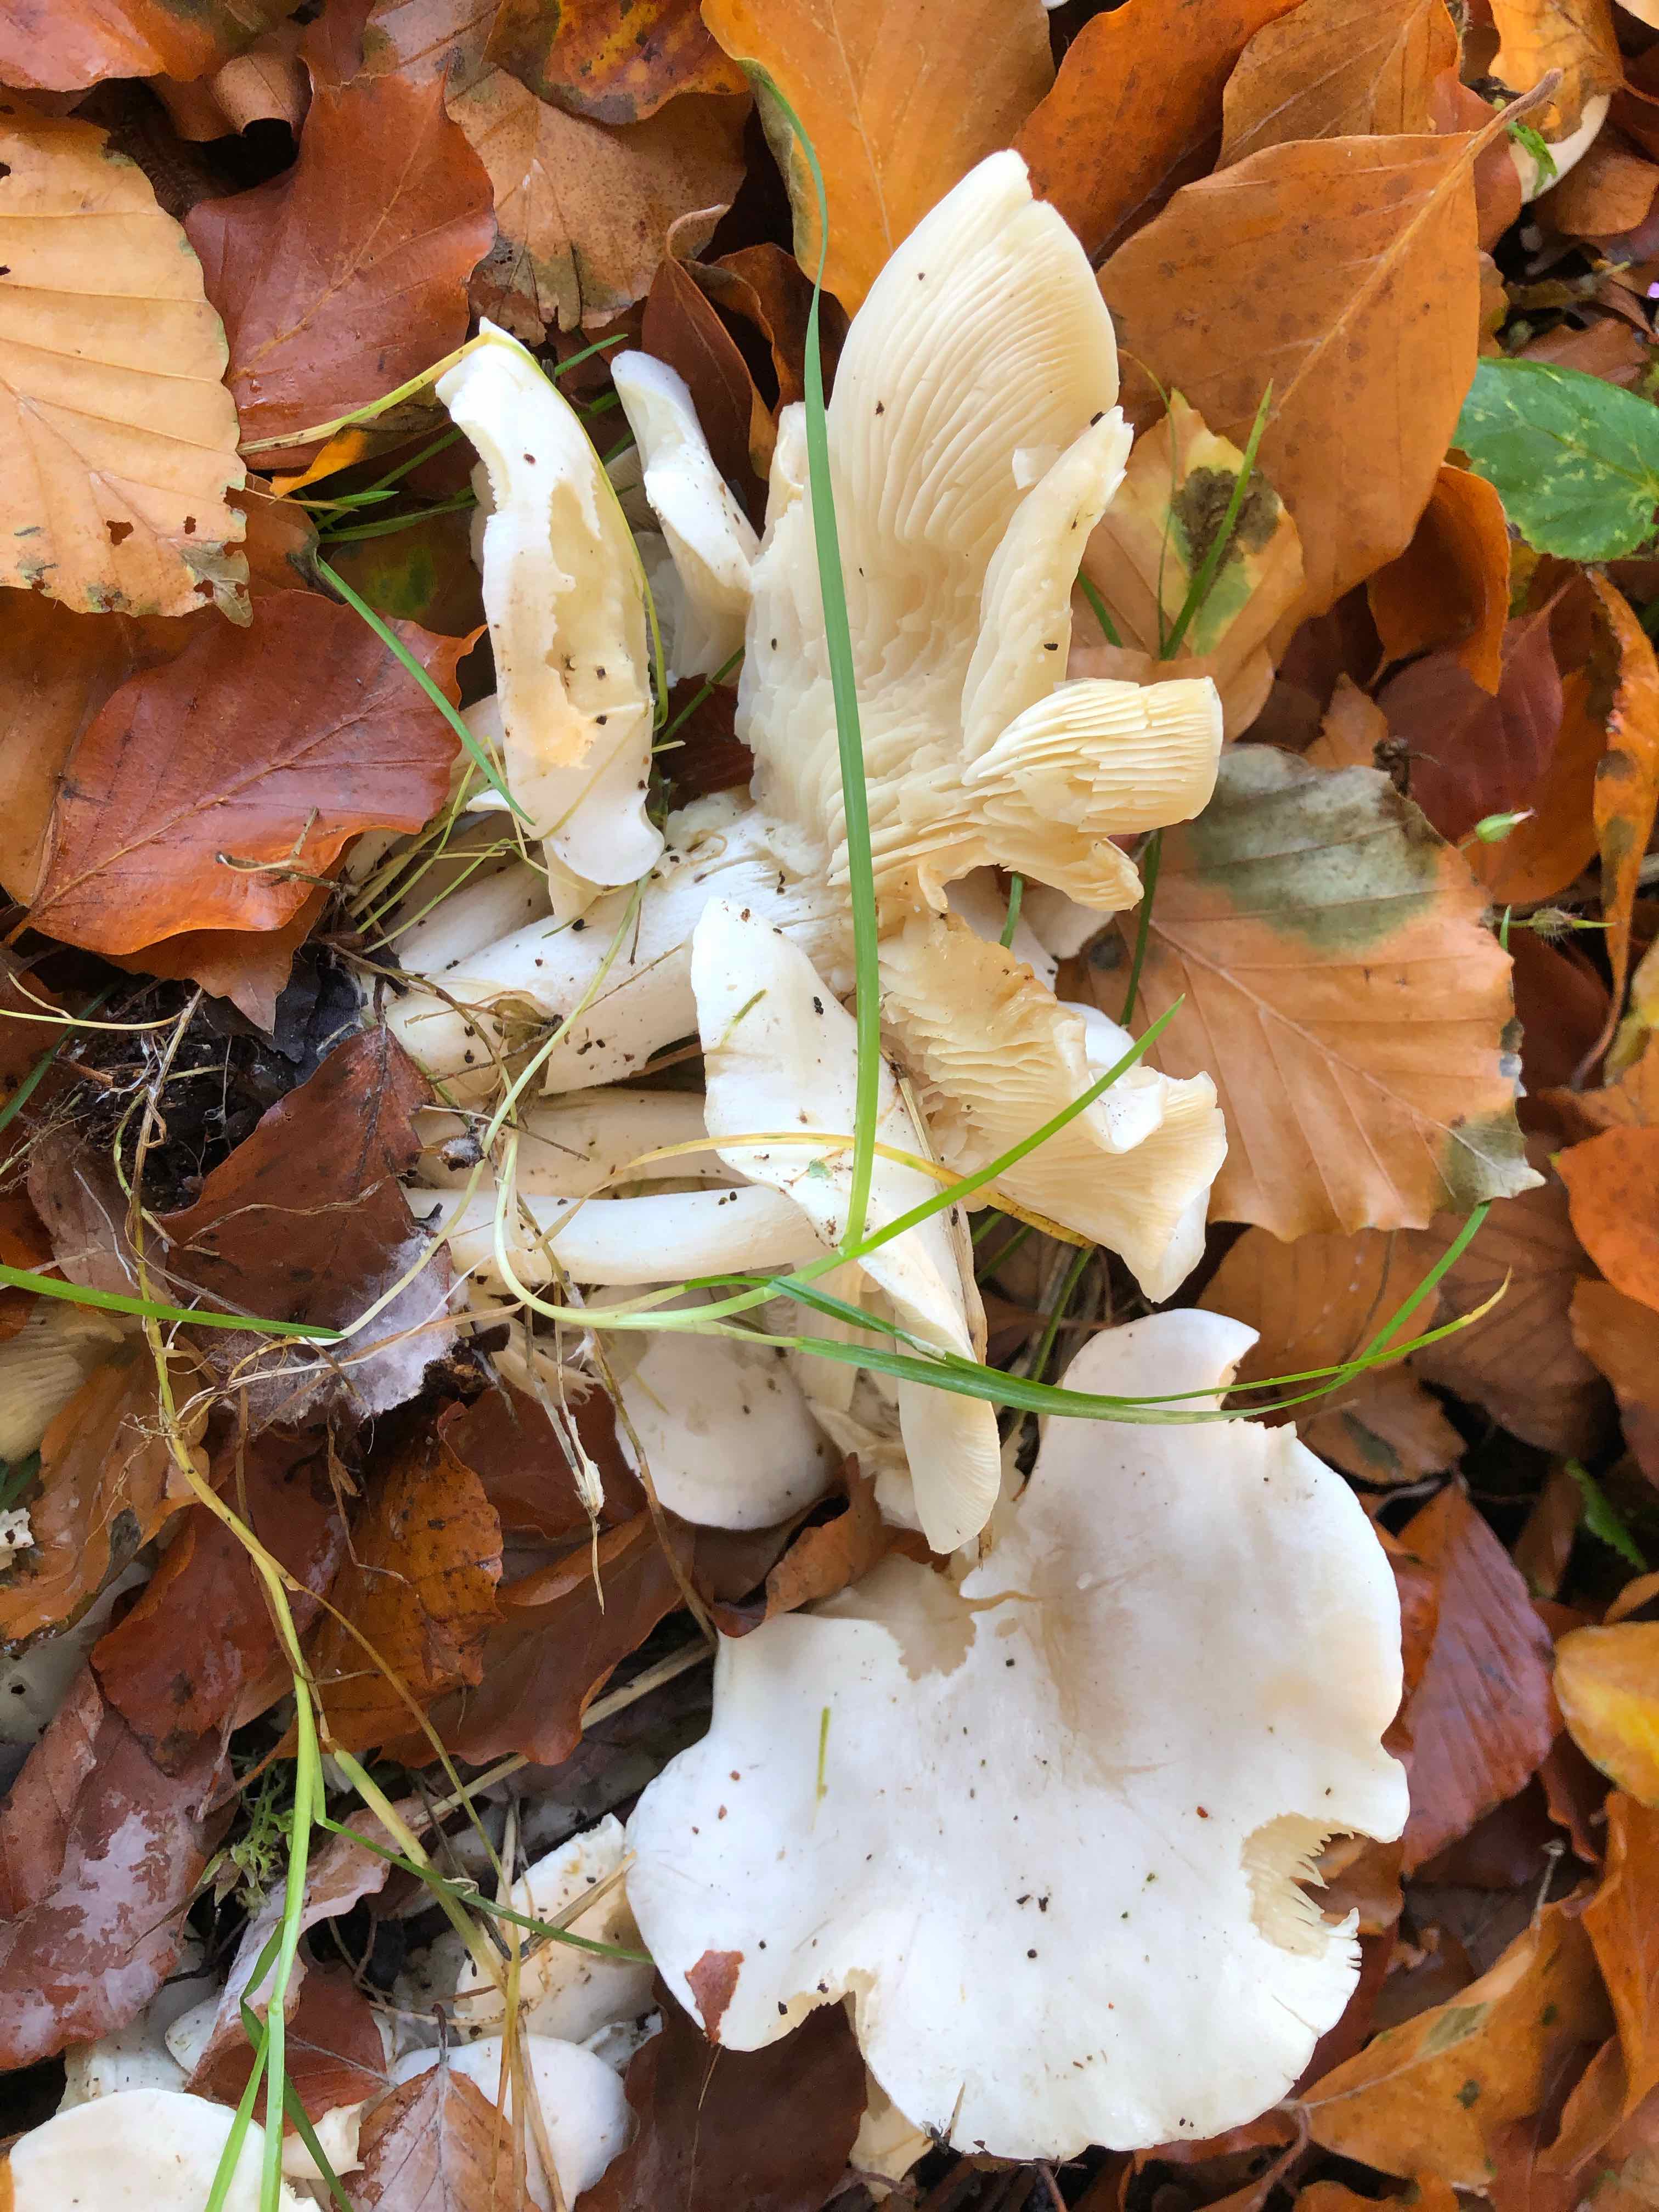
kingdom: Fungi
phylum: Basidiomycota
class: Agaricomycetes
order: Agaricales
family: Tricholomataceae
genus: Leucocybe
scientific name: Leucocybe connata
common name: knippe-tragthat
